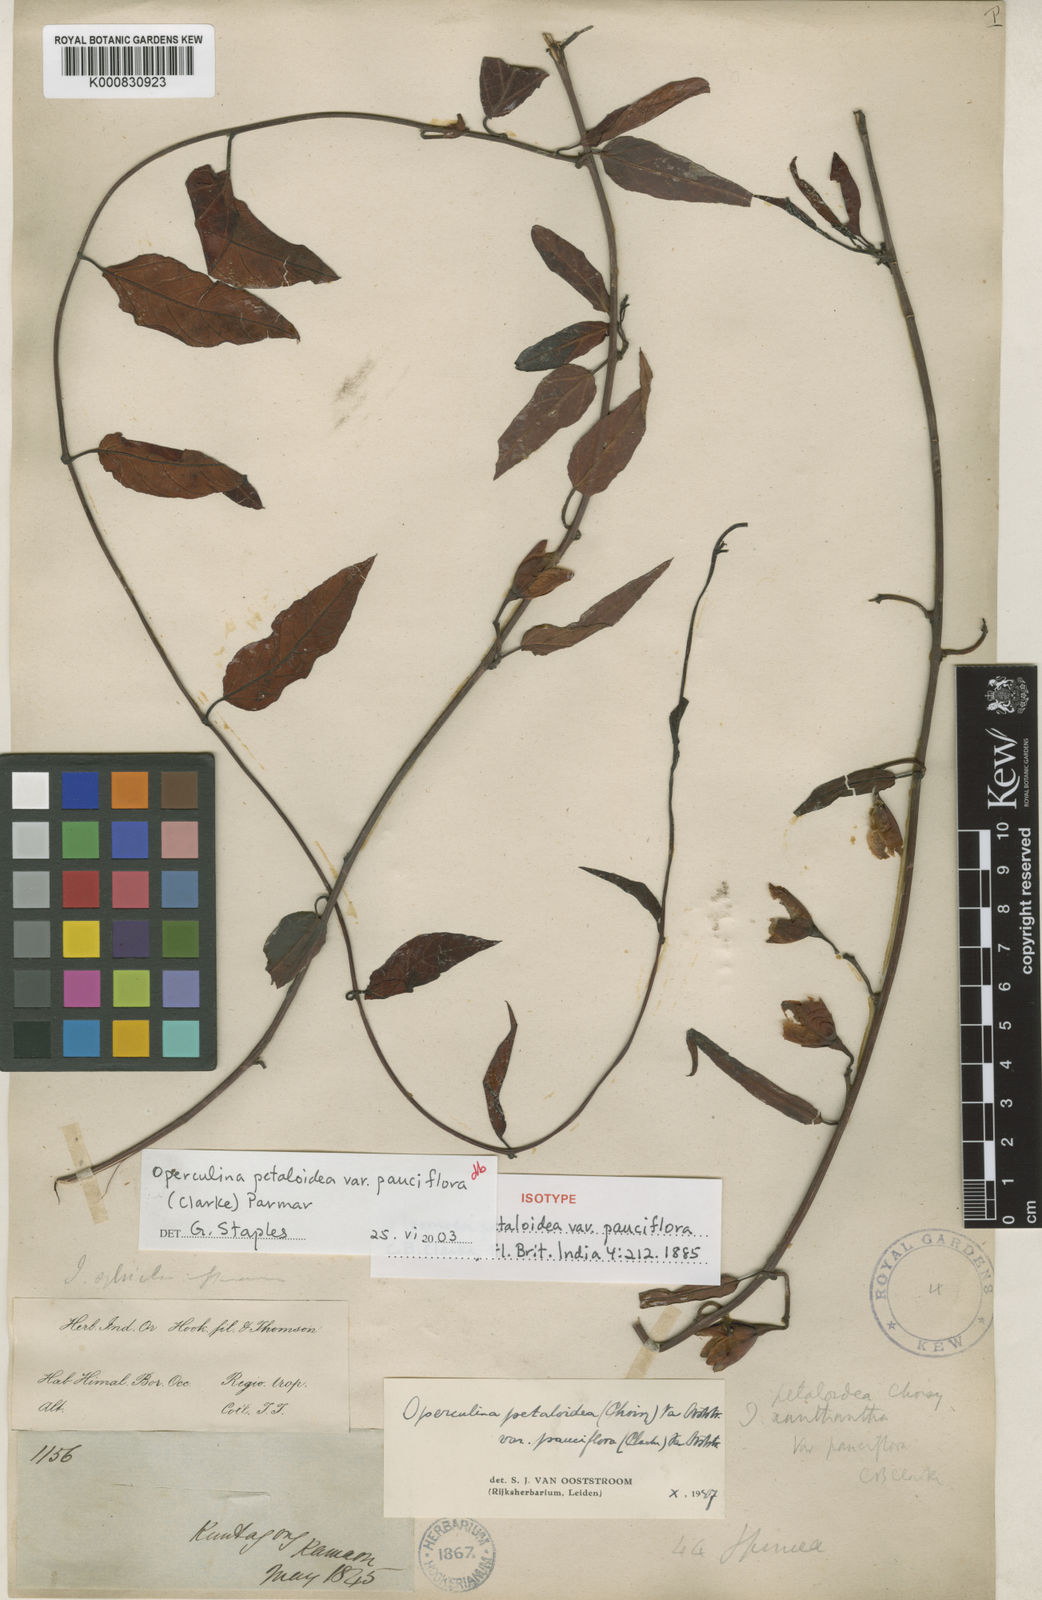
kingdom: Plantae
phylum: Tracheophyta
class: Magnoliopsida
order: Solanales
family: Convolvulaceae
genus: Operculina
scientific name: Operculina petaloidea
